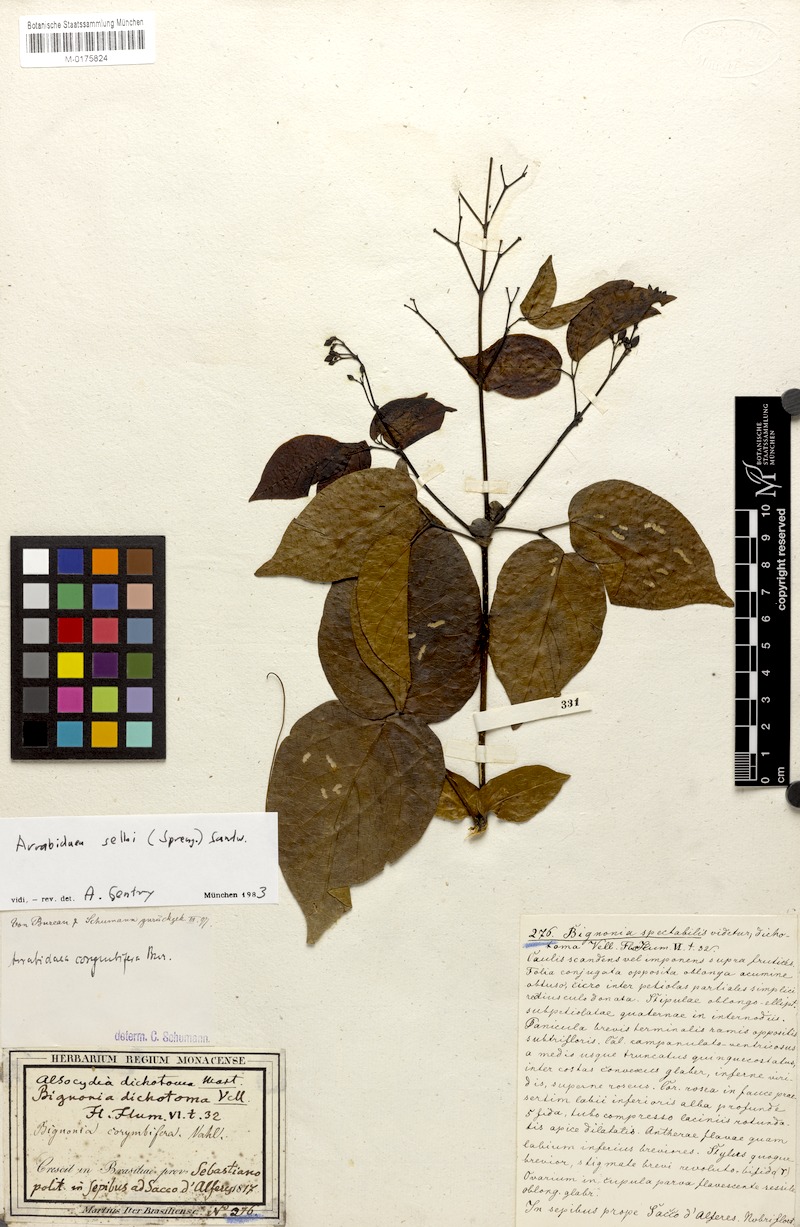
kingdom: Plantae
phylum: Tracheophyta
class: Magnoliopsida
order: Lamiales
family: Bignoniaceae
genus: Tanaecium
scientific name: Tanaecium selloi
